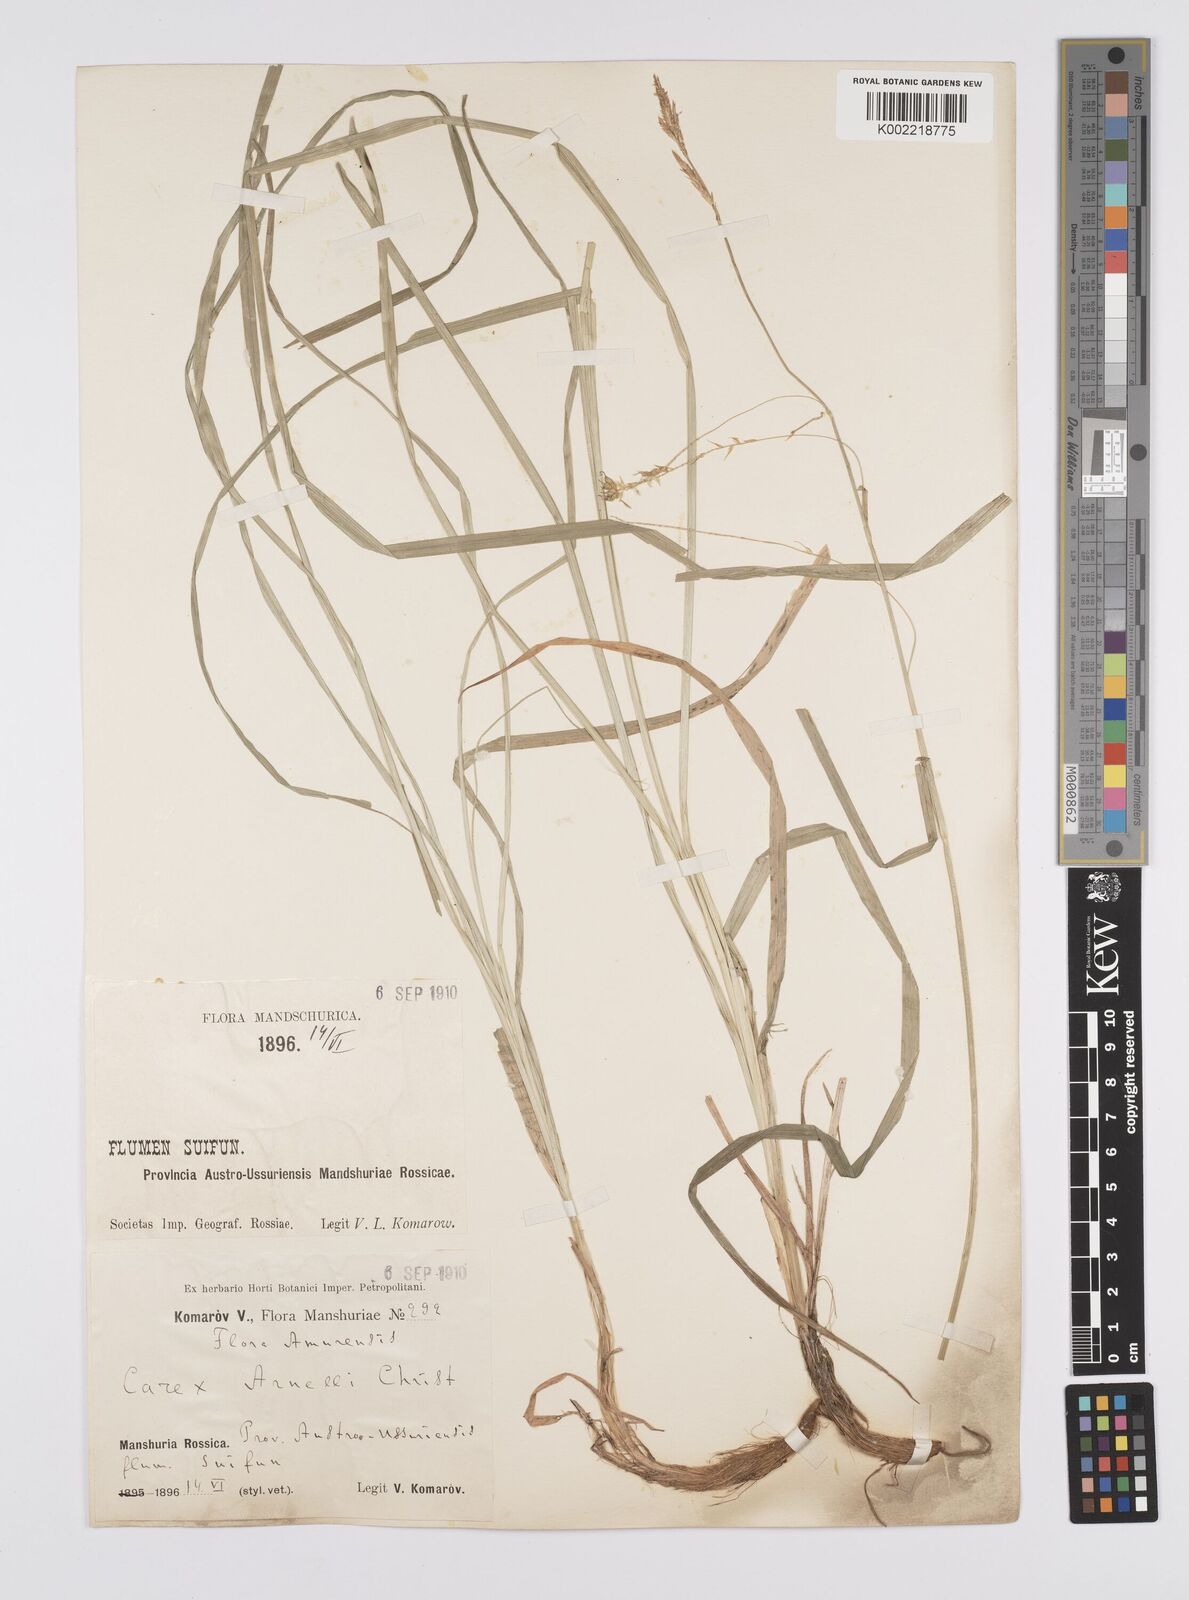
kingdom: Plantae
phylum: Tracheophyta
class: Liliopsida
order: Poales
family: Cyperaceae
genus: Carex
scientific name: Carex arnellii
